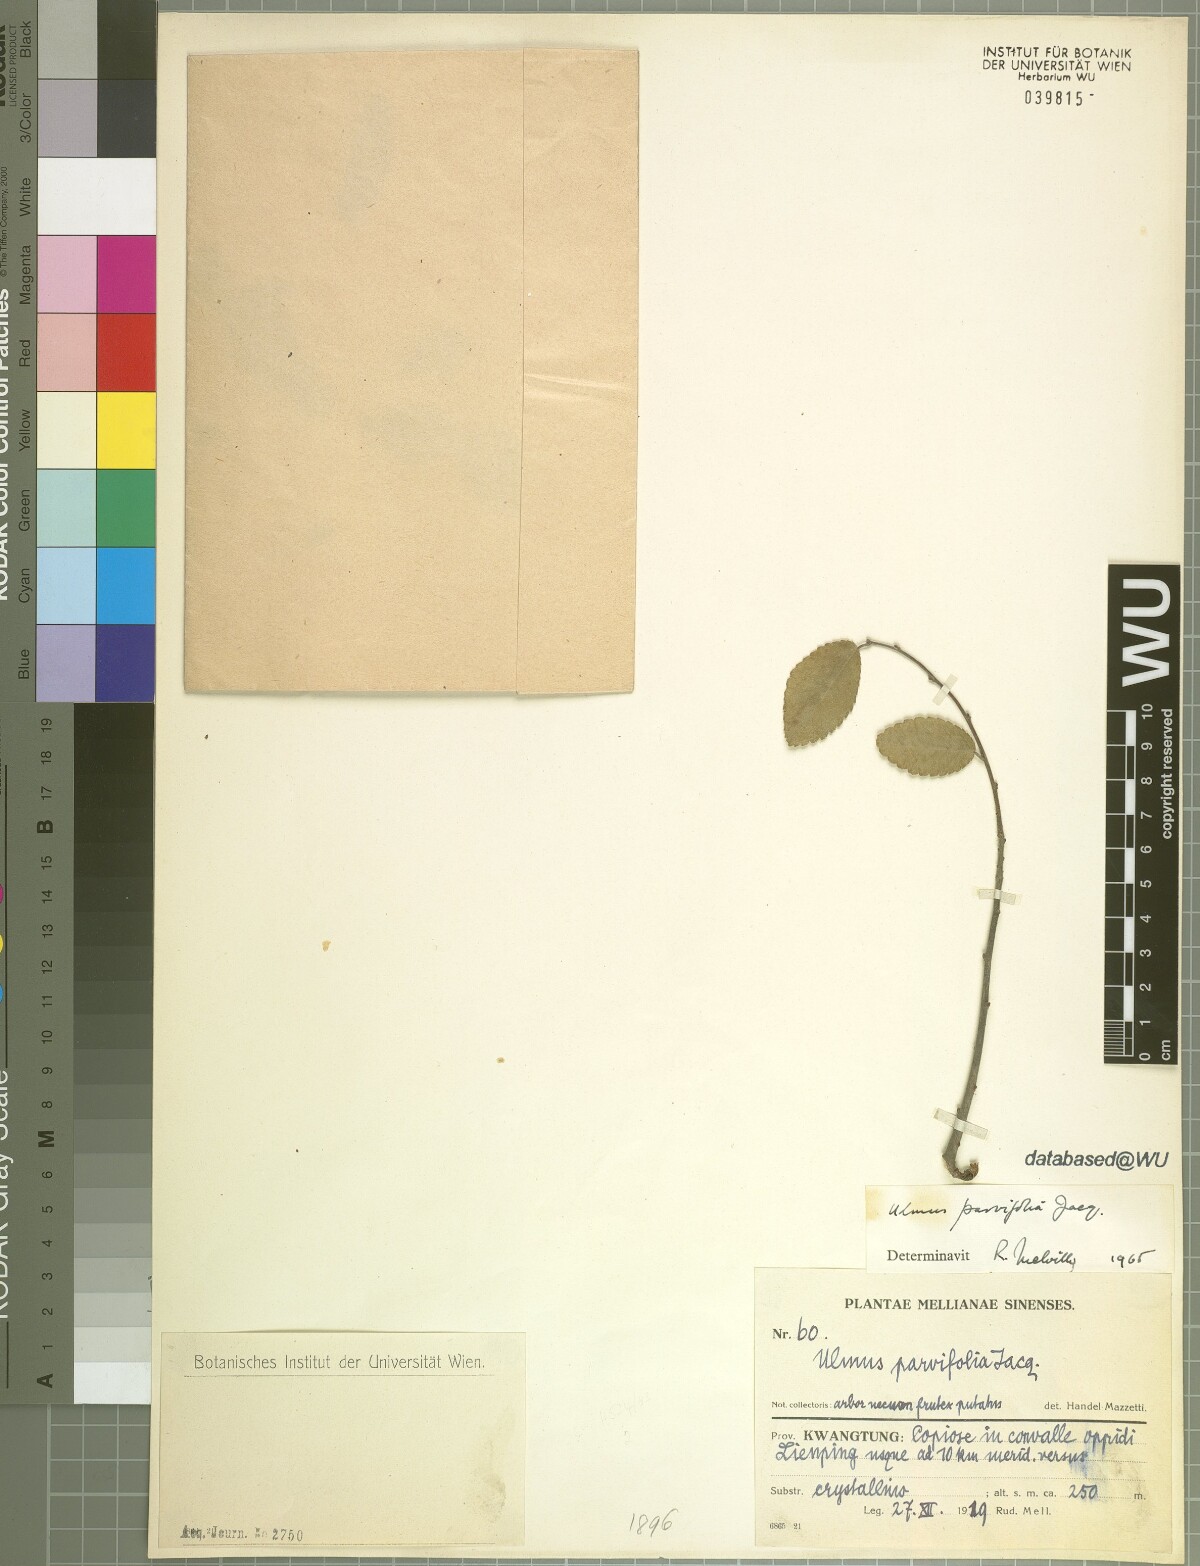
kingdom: Plantae
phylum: Tracheophyta
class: Magnoliopsida
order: Rosales
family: Ulmaceae
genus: Ulmus
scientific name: Ulmus parvifolia
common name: Chinese elm
